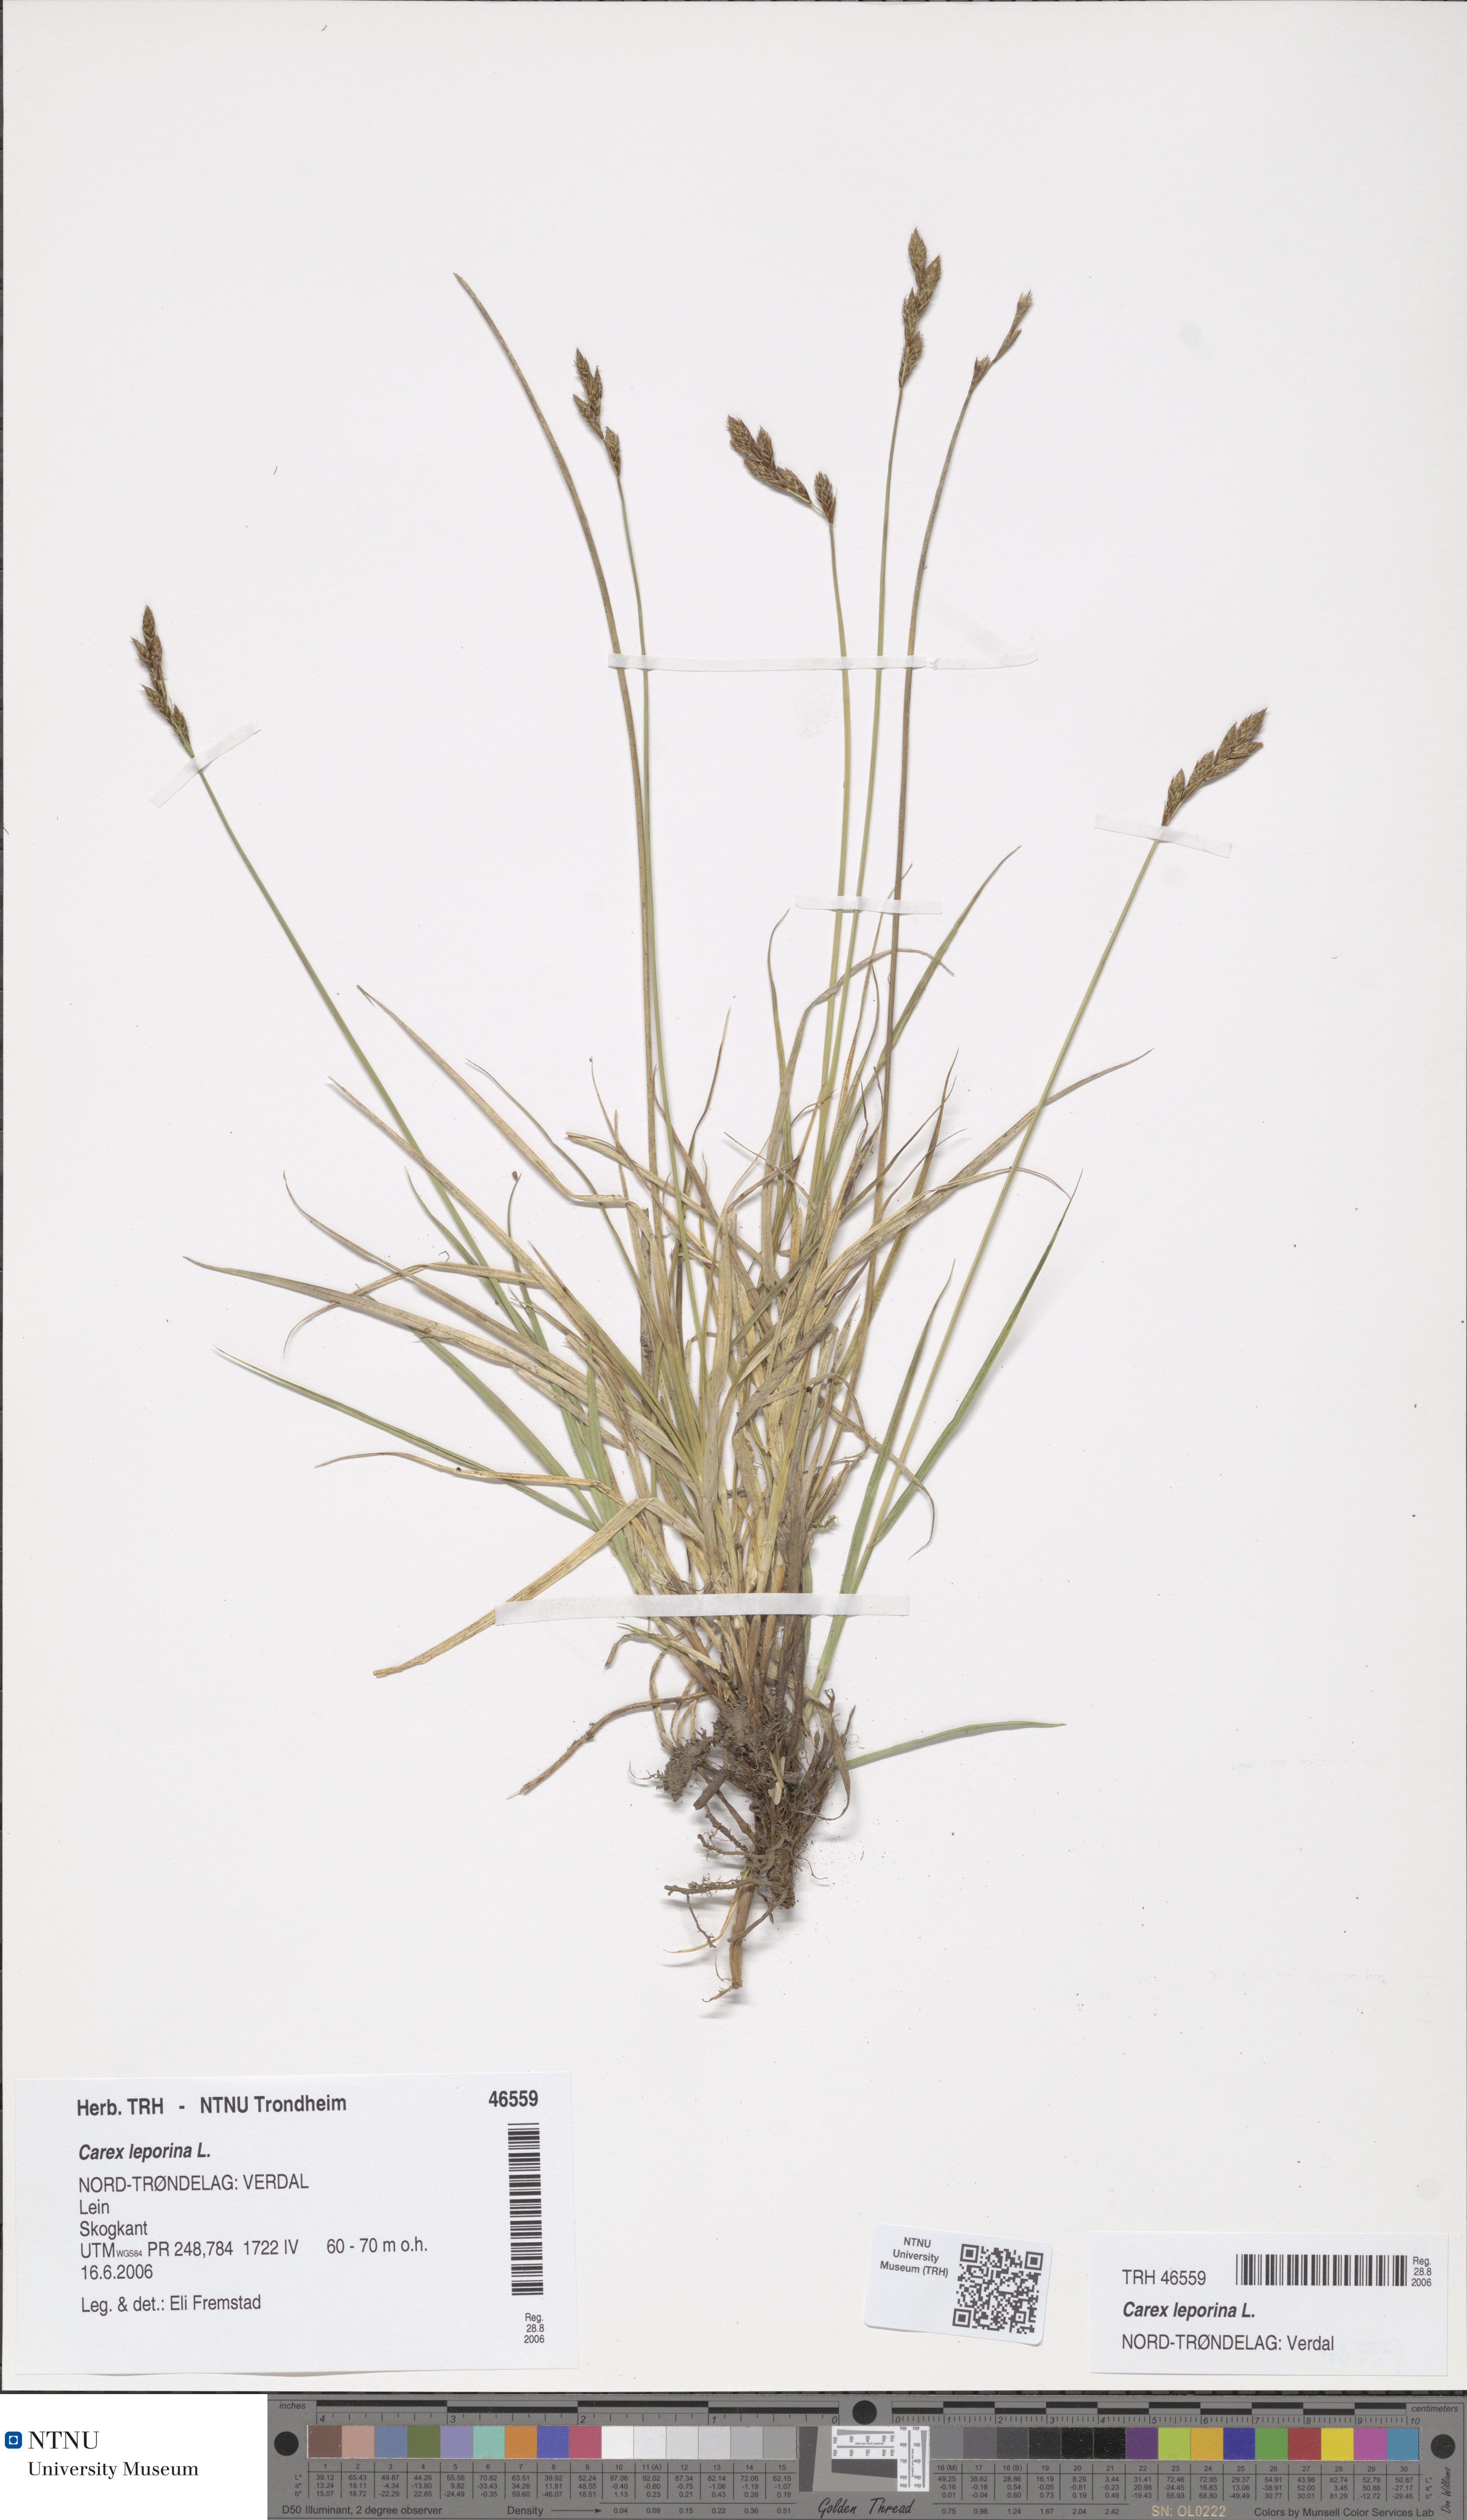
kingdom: Plantae
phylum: Tracheophyta
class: Liliopsida
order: Poales
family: Cyperaceae
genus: Carex
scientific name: Carex leporina
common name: Oval sedge
